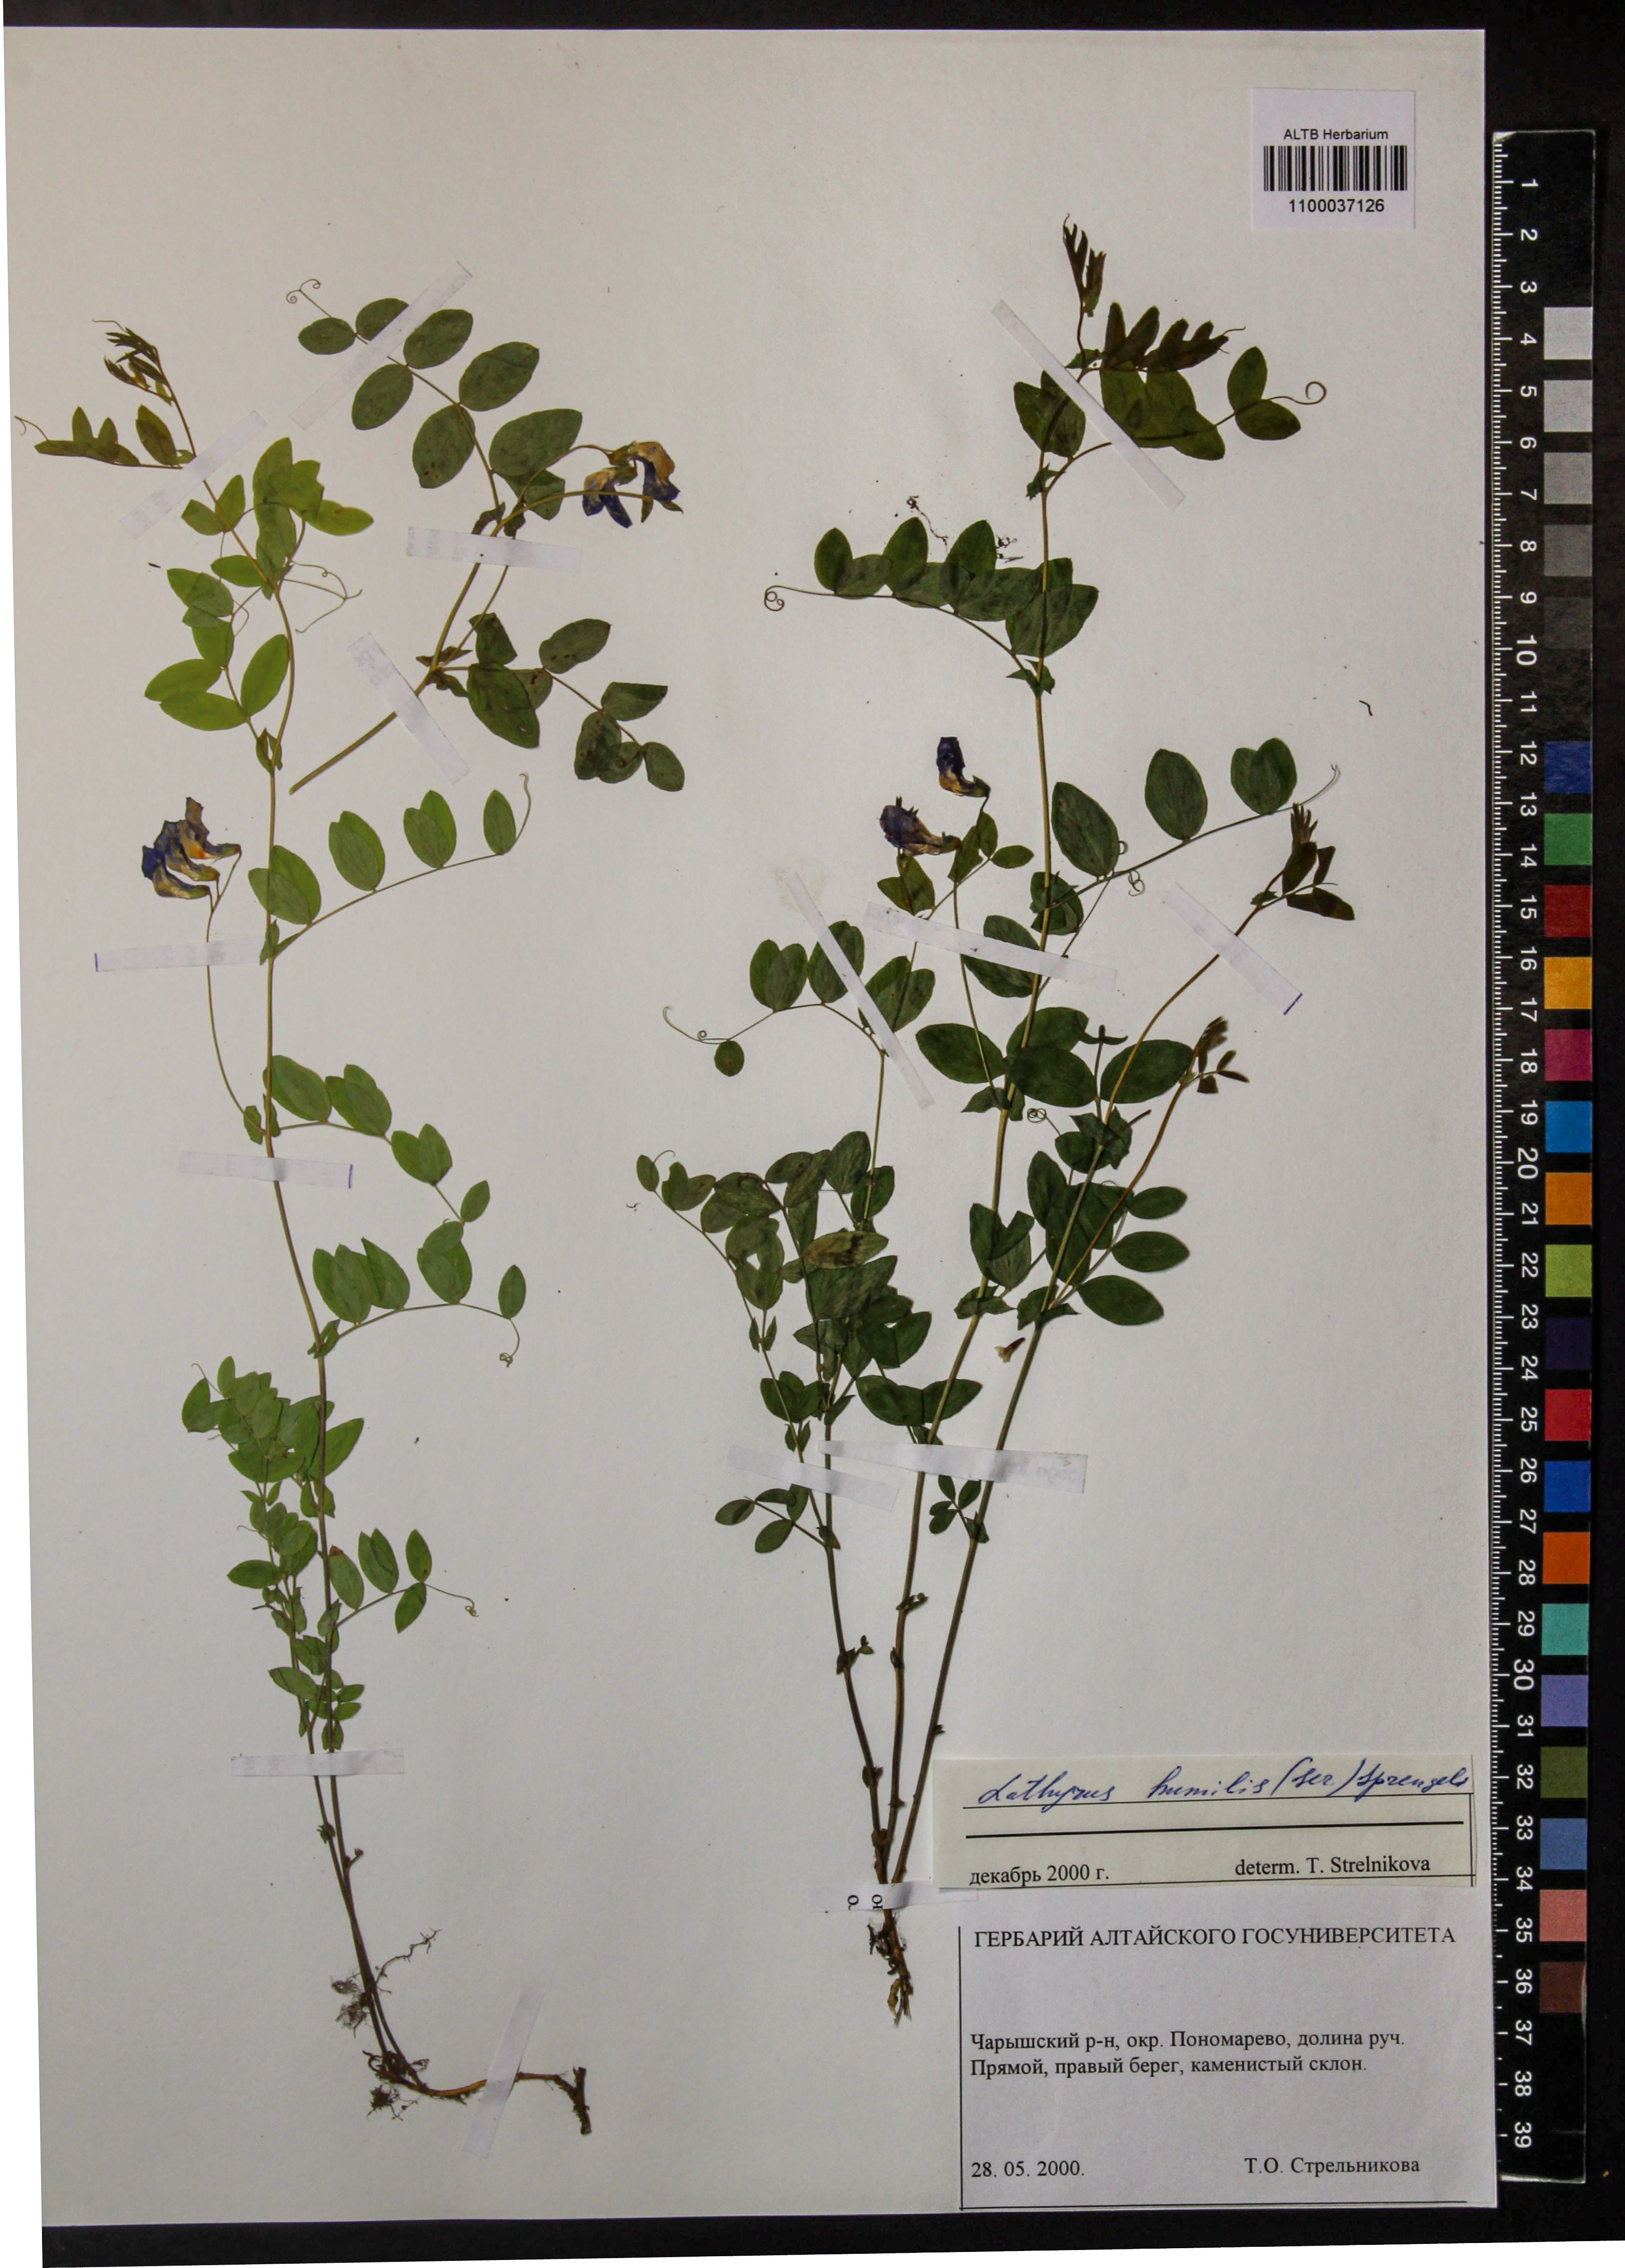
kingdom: Plantae
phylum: Tracheophyta
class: Magnoliopsida
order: Fabales
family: Fabaceae
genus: Lathyrus
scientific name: Lathyrus humilis
